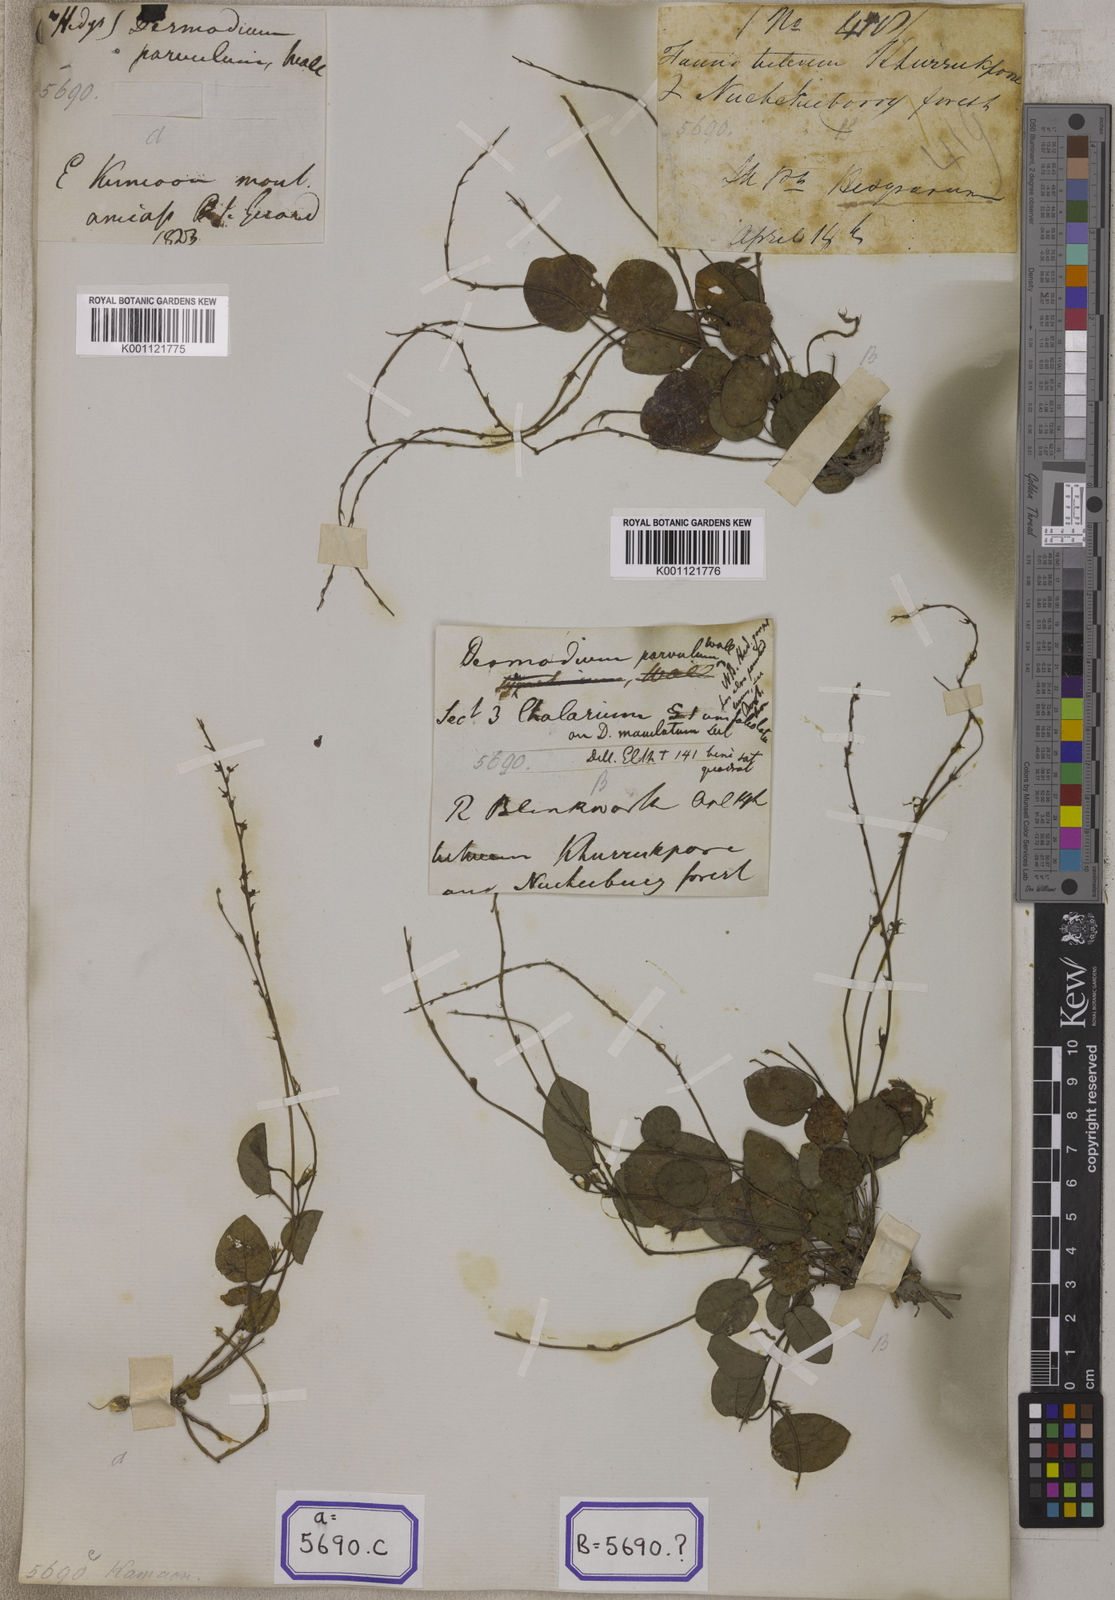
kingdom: Plantae
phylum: Tracheophyta
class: Magnoliopsida
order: Fabales
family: Fabaceae
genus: Pleurolobus
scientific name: Pleurolobus gangeticus
